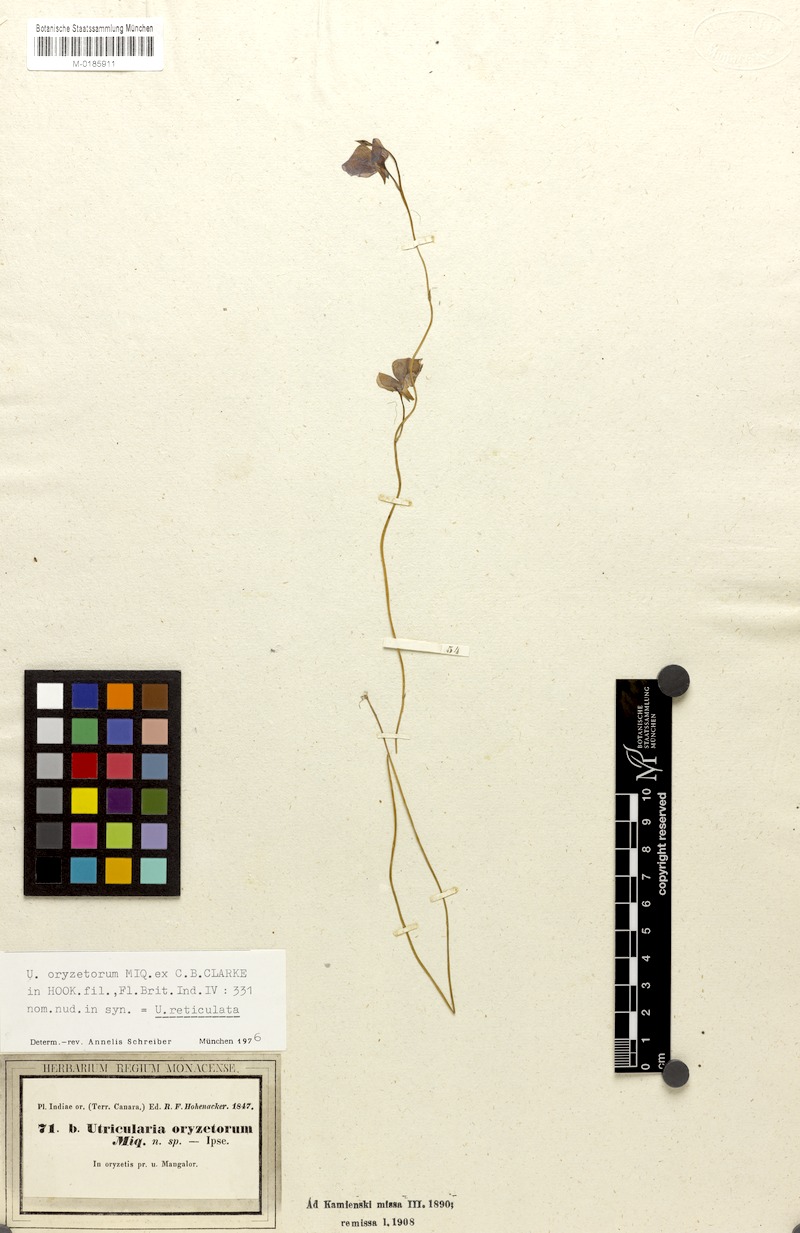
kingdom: Plantae
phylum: Tracheophyta
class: Magnoliopsida
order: Lamiales
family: Lentibulariaceae
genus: Utricularia
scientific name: Utricularia reticulata
